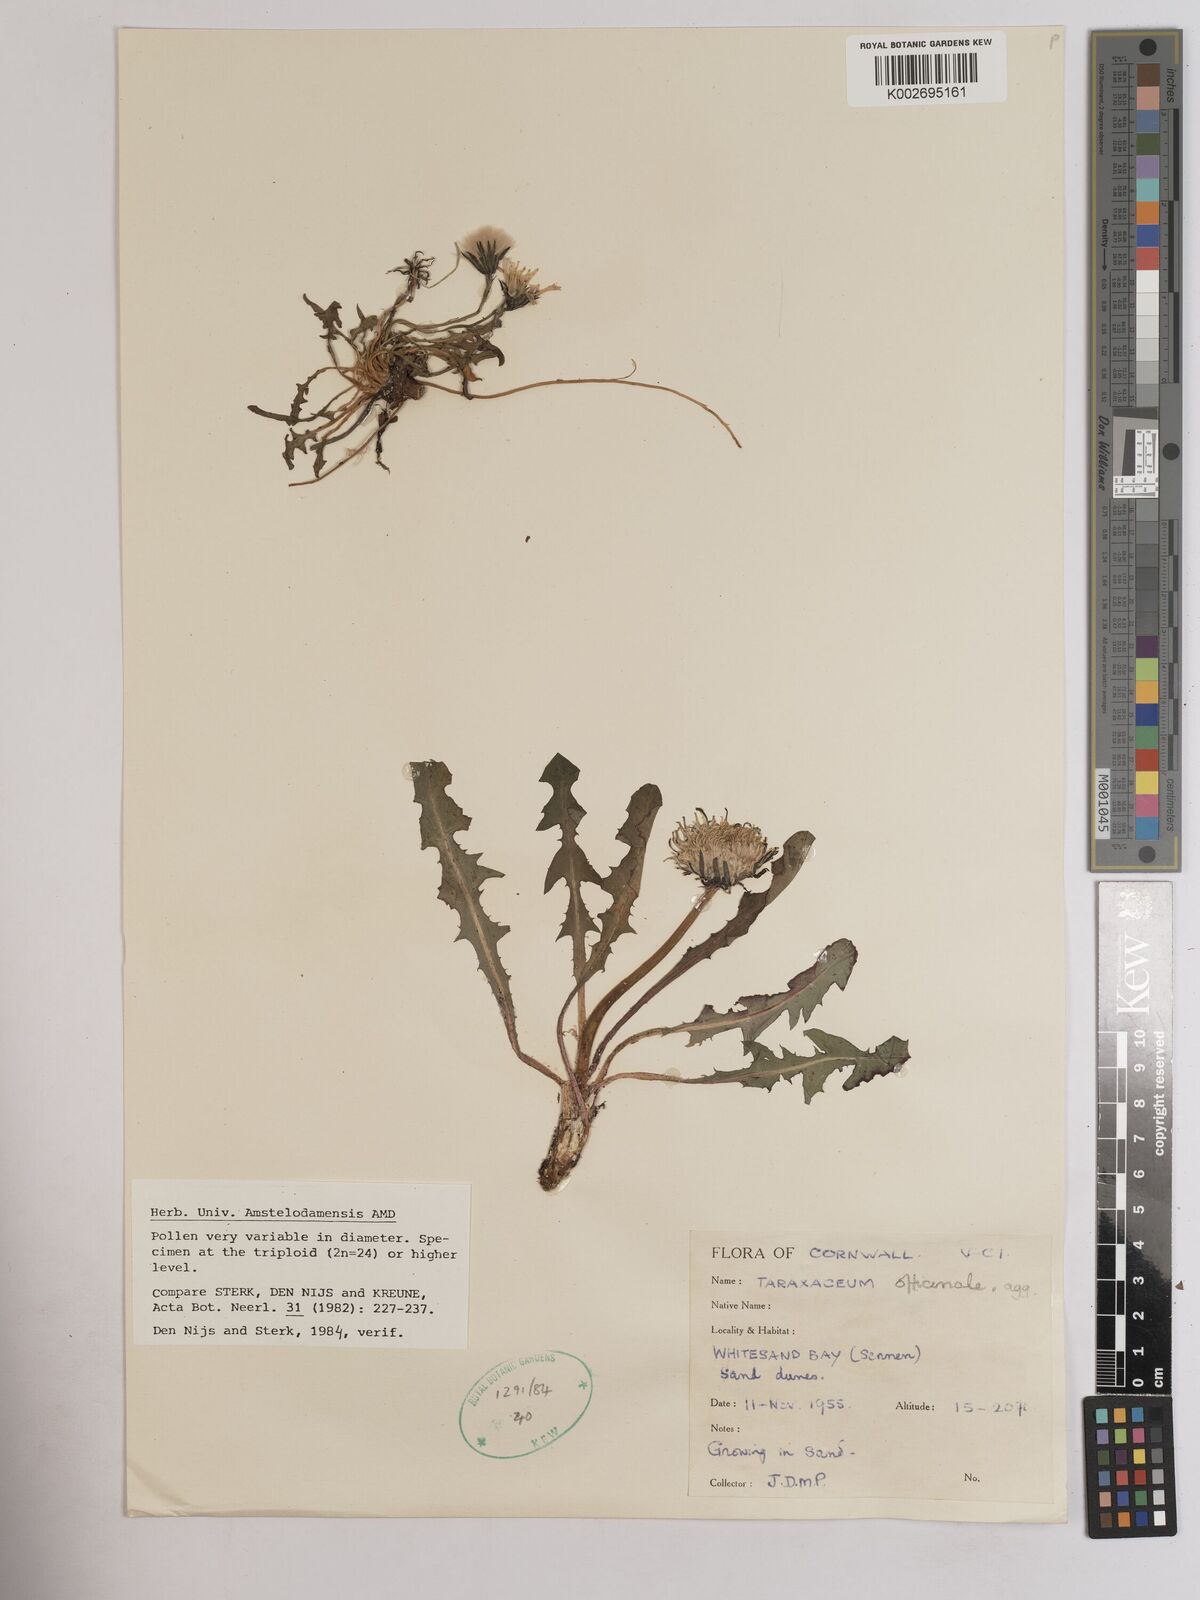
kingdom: Plantae
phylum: Tracheophyta
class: Magnoliopsida
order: Asterales
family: Asteraceae
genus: Taraxacum
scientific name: Taraxacum officinale
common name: Common dandelion
